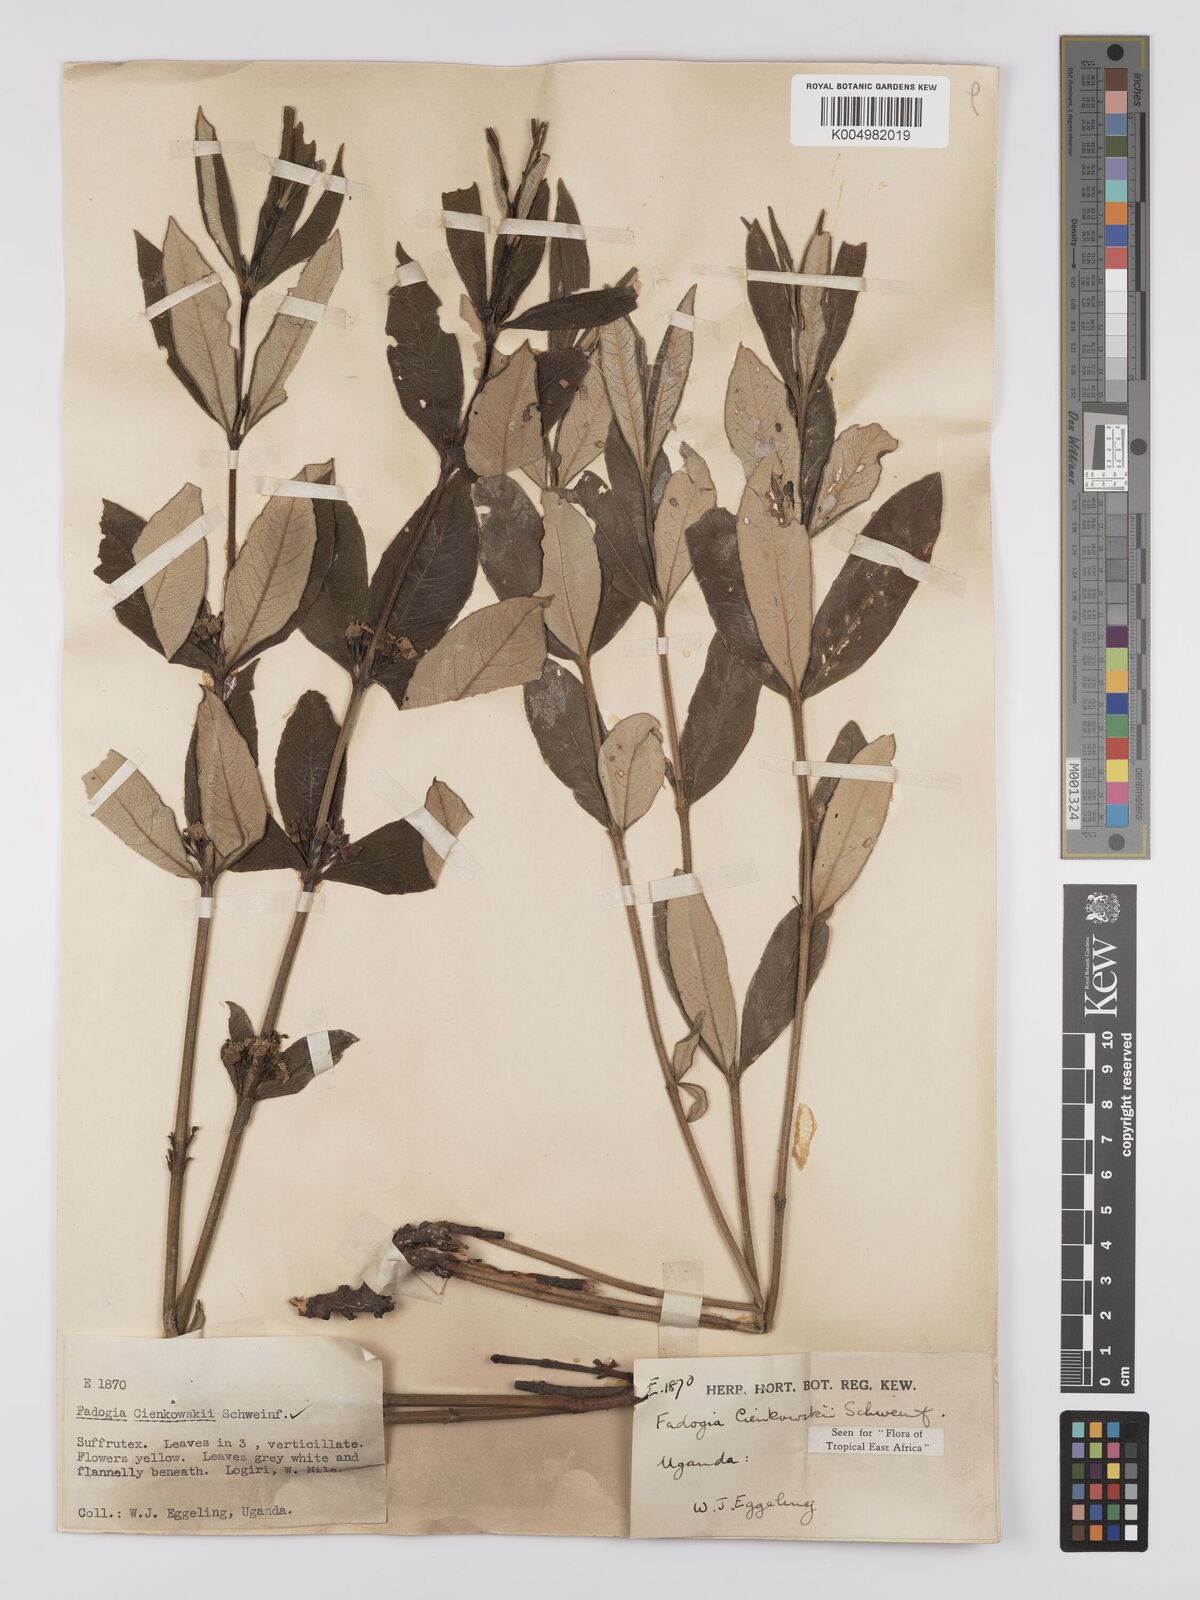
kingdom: Plantae
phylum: Tracheophyta
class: Magnoliopsida
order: Gentianales
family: Rubiaceae
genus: Fadogia
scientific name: Fadogia cienkowskii
